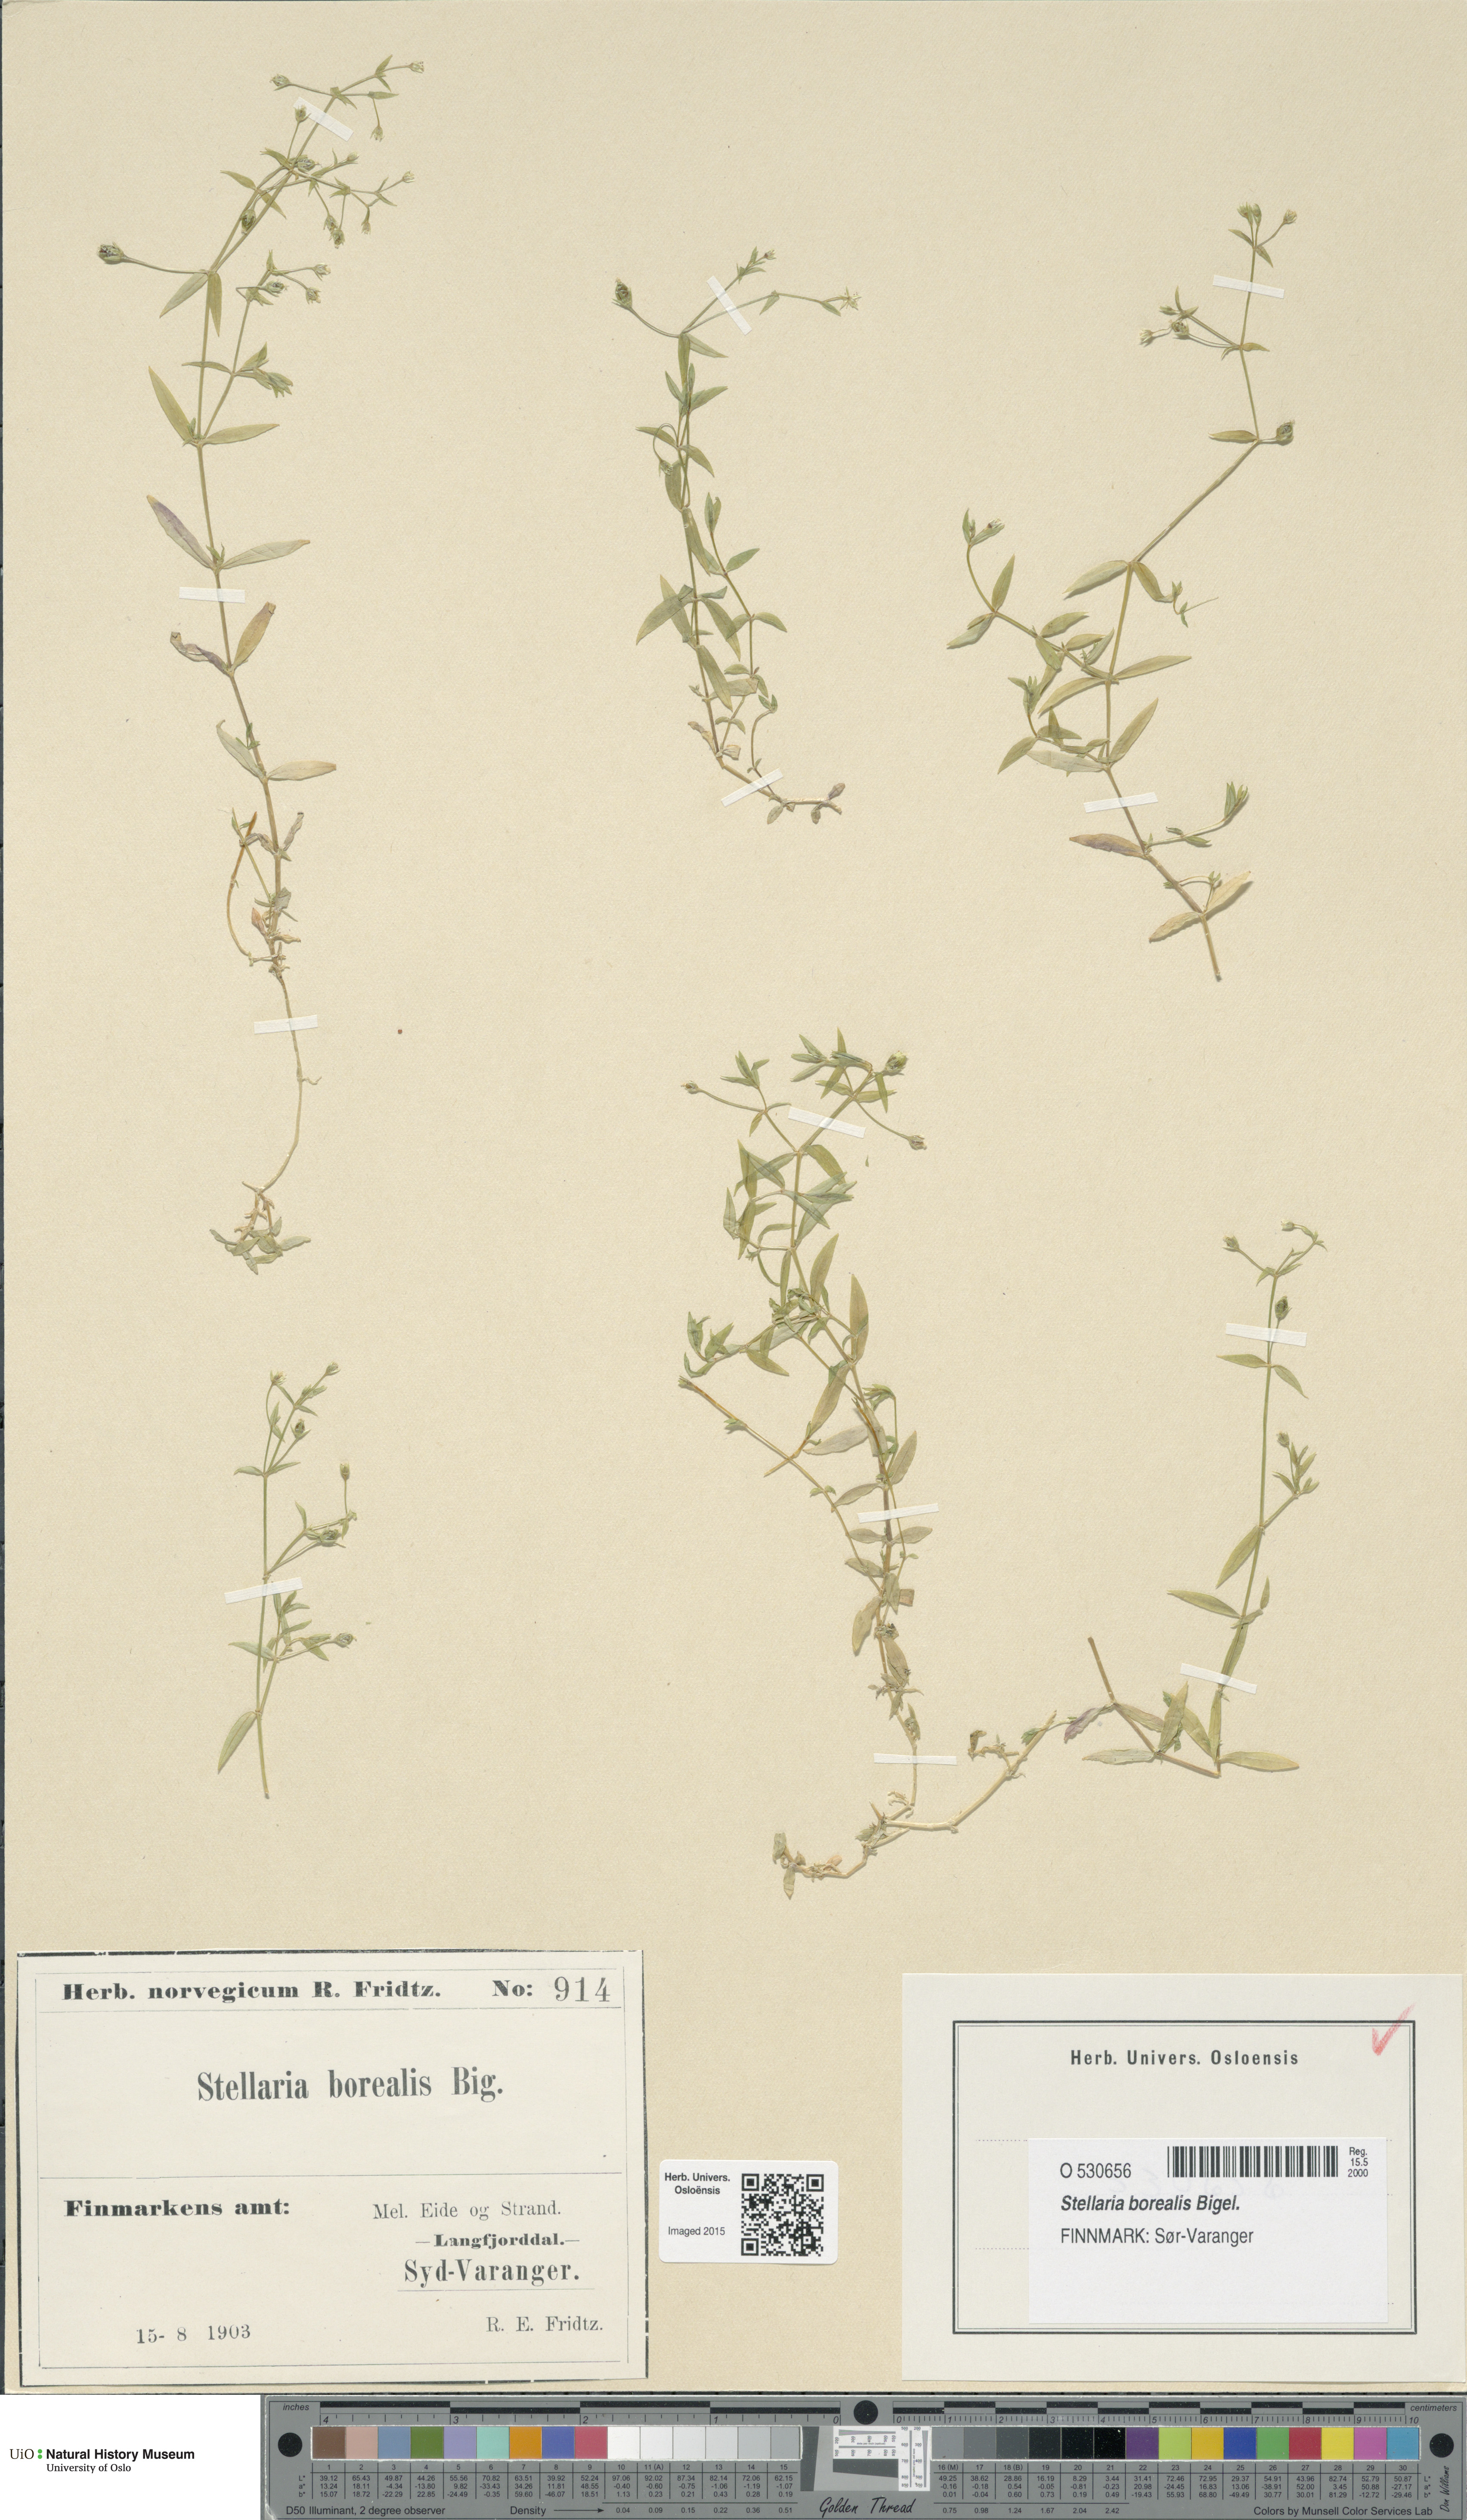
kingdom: Plantae
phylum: Tracheophyta
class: Magnoliopsida
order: Caryophyllales
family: Caryophyllaceae
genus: Stellaria
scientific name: Stellaria borealis
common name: Boreal starwort
